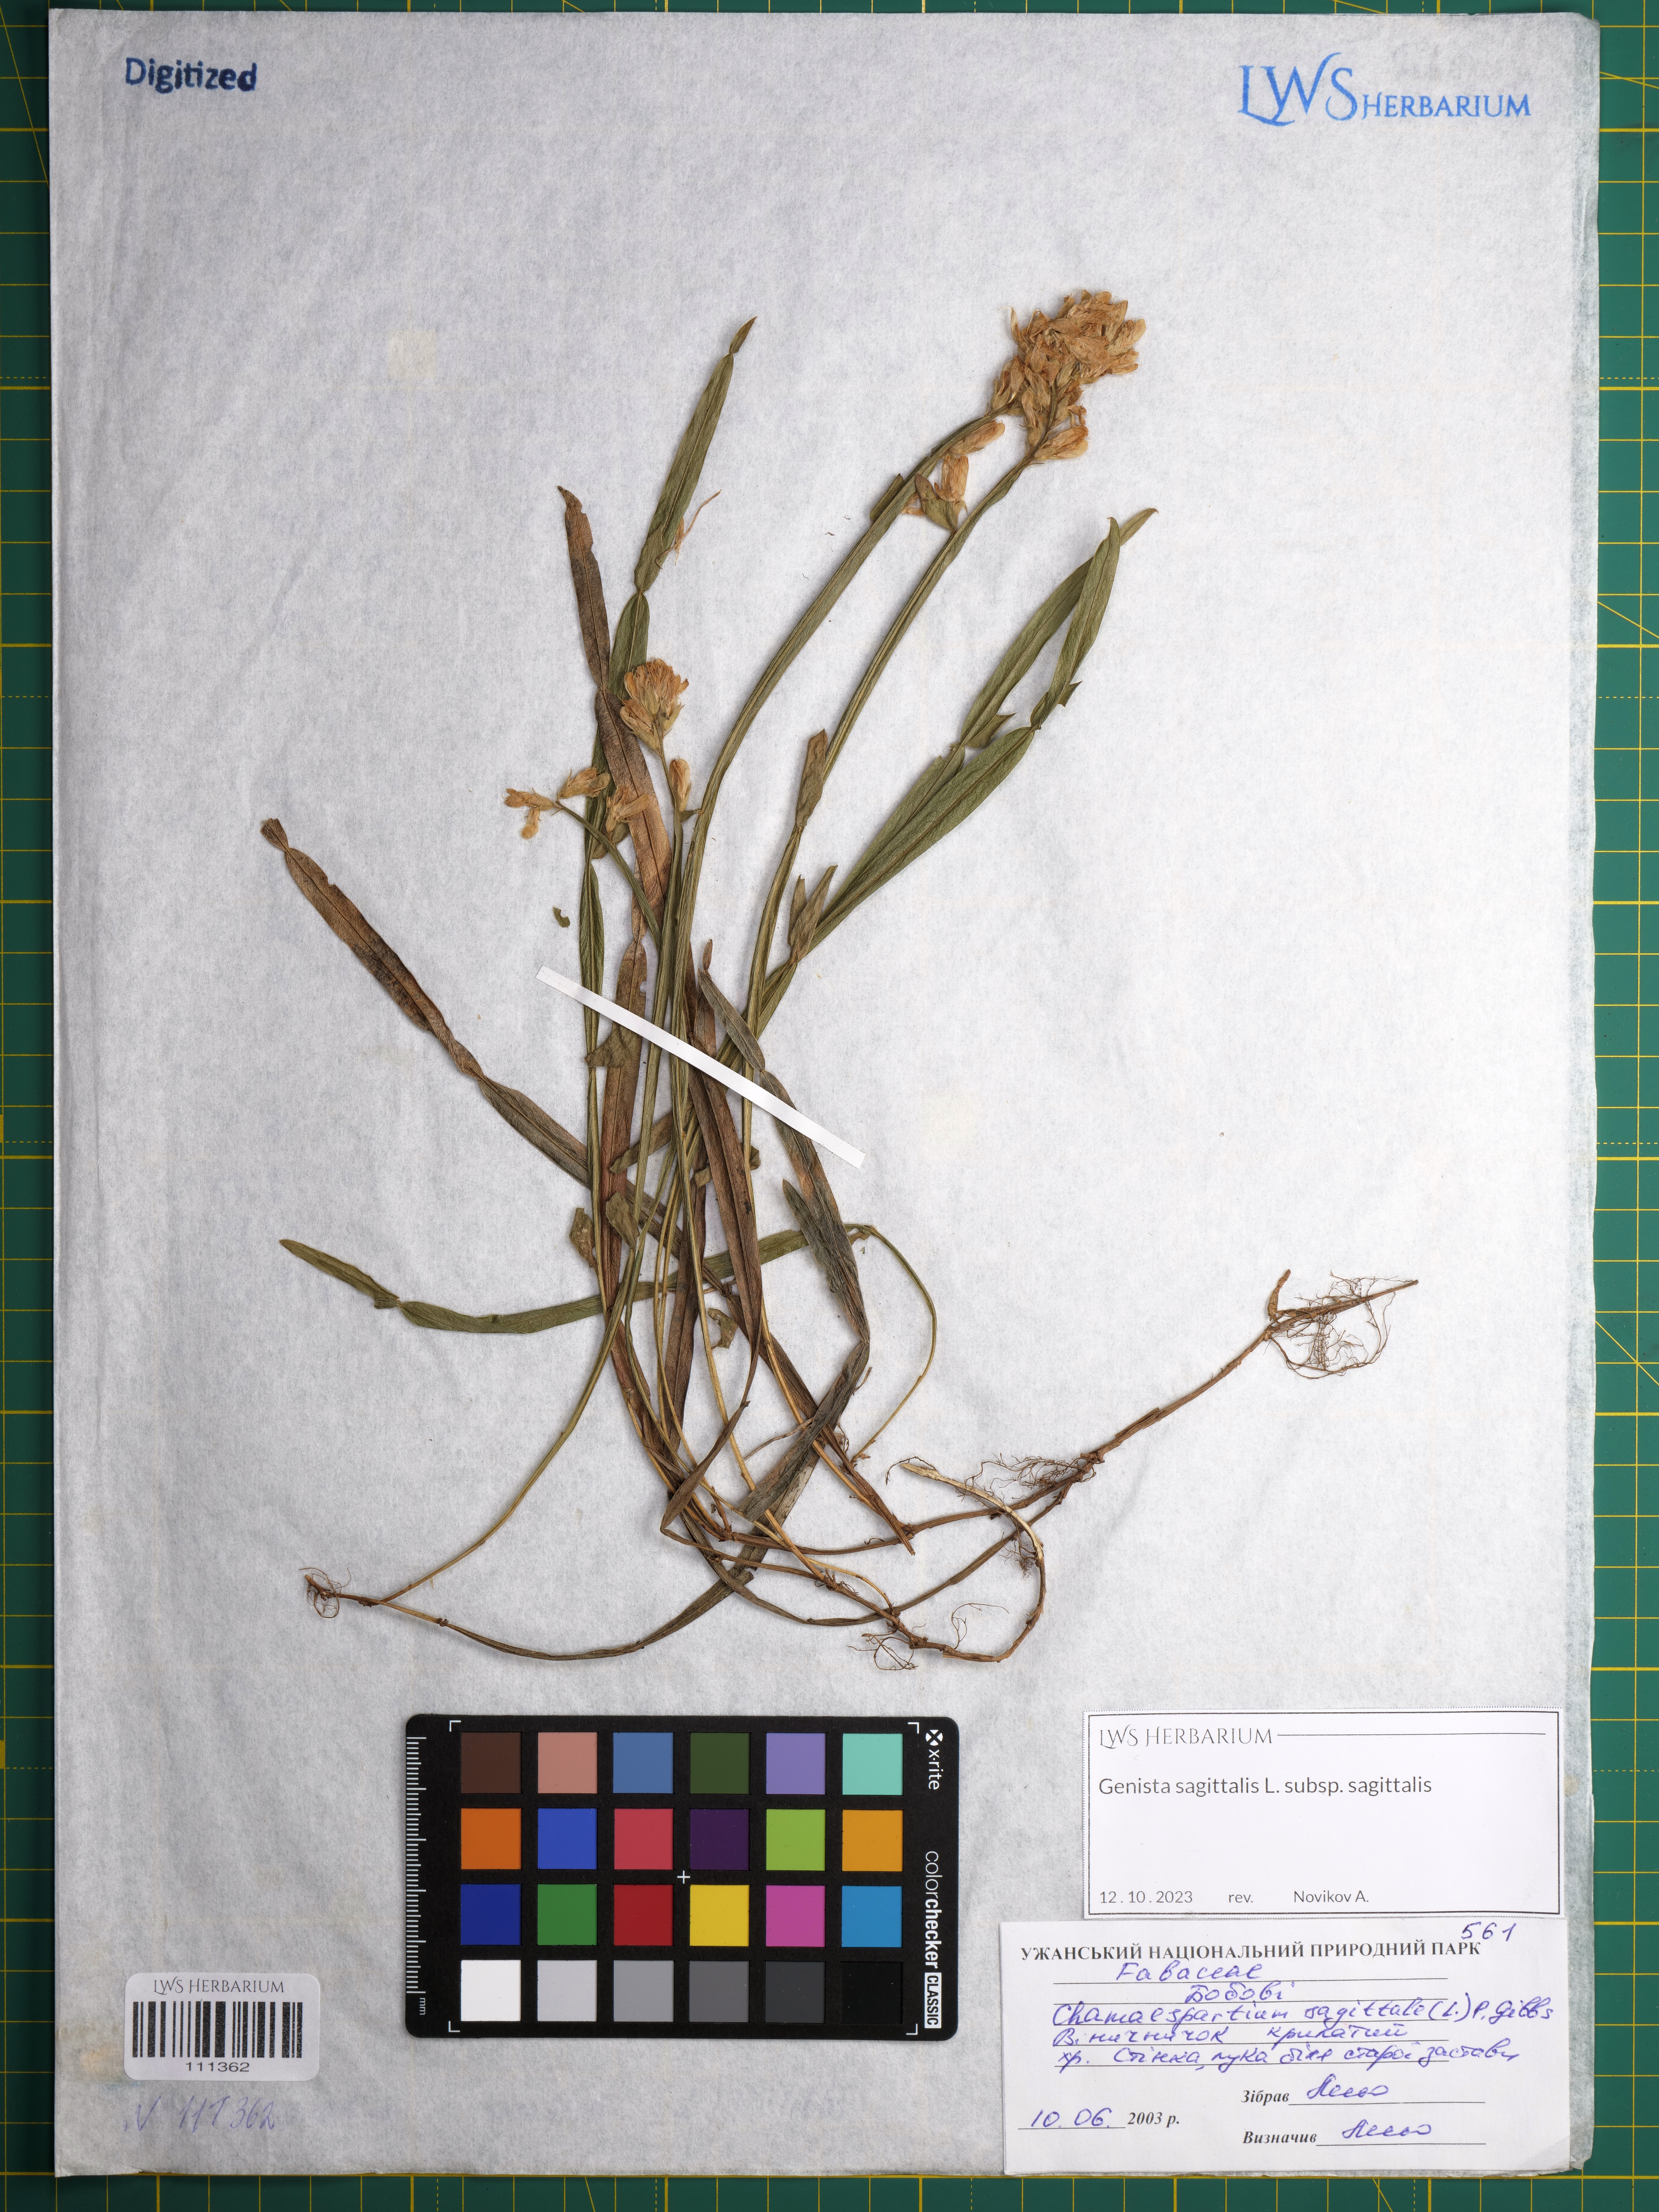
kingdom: Plantae
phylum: Tracheophyta
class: Magnoliopsida
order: Fabales
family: Fabaceae
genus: Genista
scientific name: Genista sagittalis
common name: Winged greenweed
